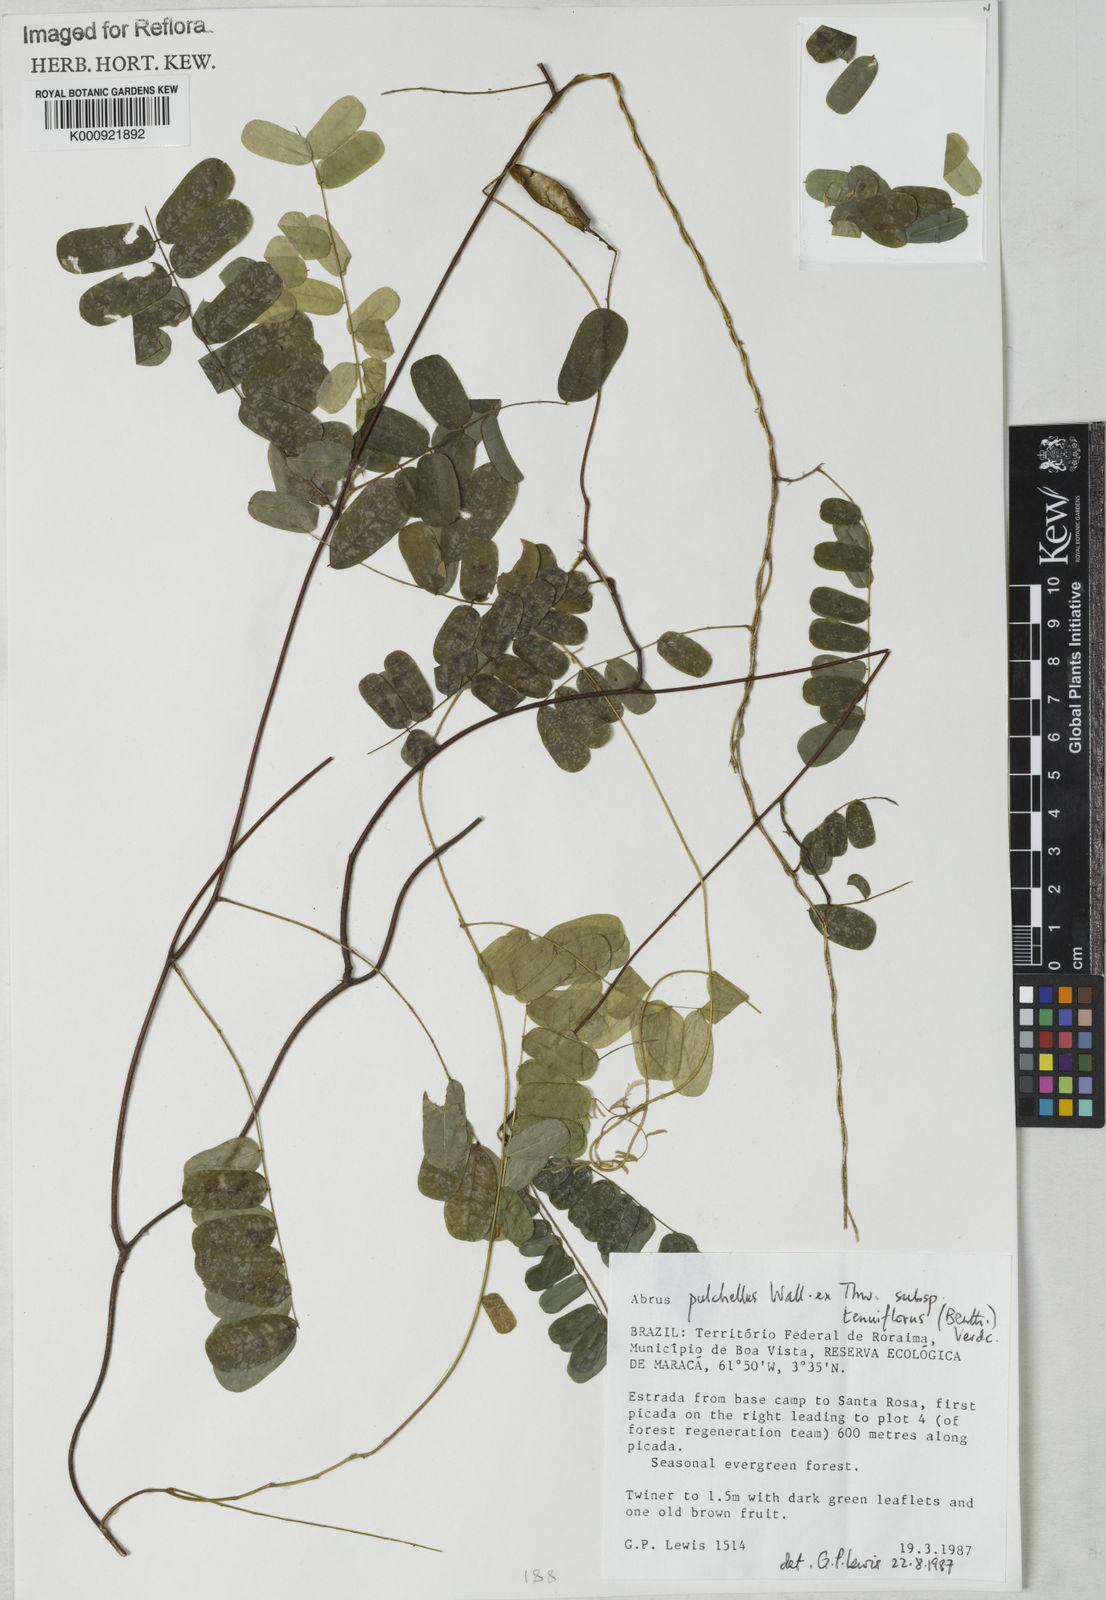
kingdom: Plantae
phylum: Tracheophyta
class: Magnoliopsida
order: Fabales
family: Fabaceae
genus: Abrus
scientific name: Abrus melanospermus
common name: Licorice-root
